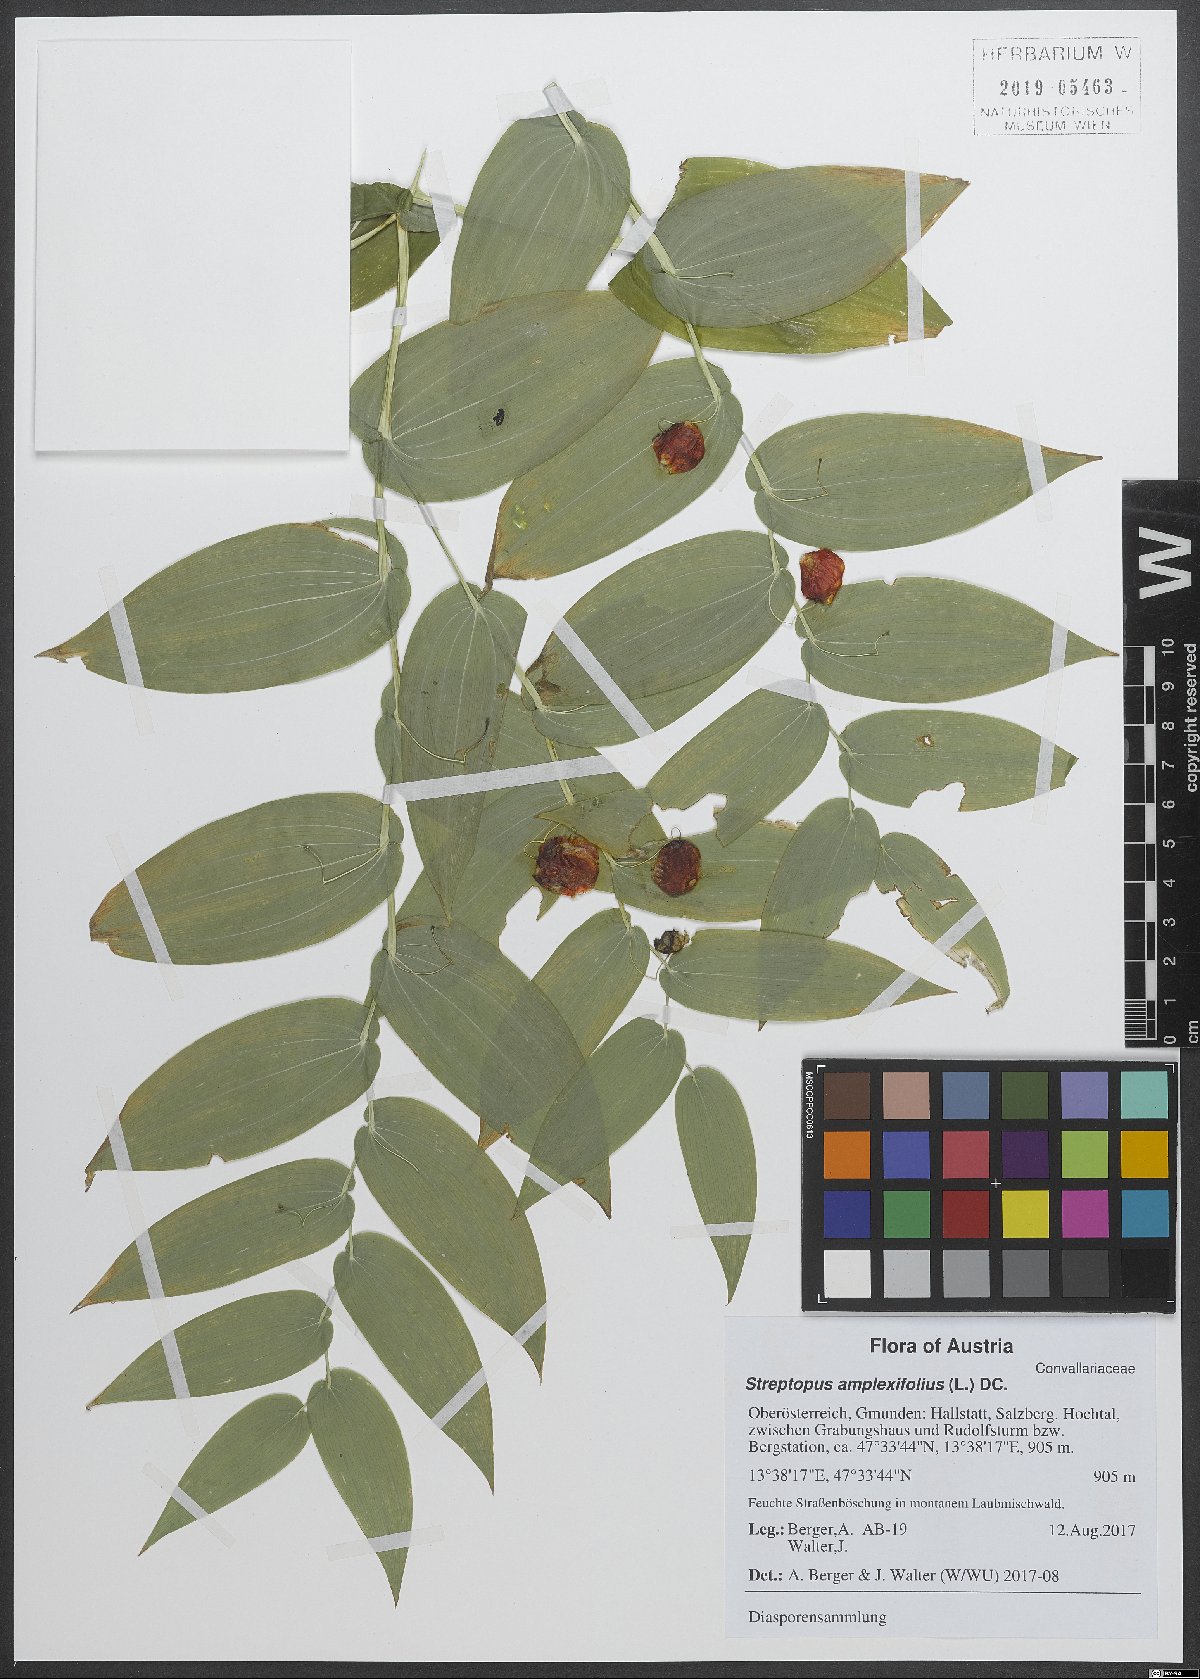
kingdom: Plantae
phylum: Tracheophyta
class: Liliopsida
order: Liliales
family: Liliaceae
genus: Streptopus
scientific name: Streptopus amplexifolius
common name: Clasp twisted stalk
